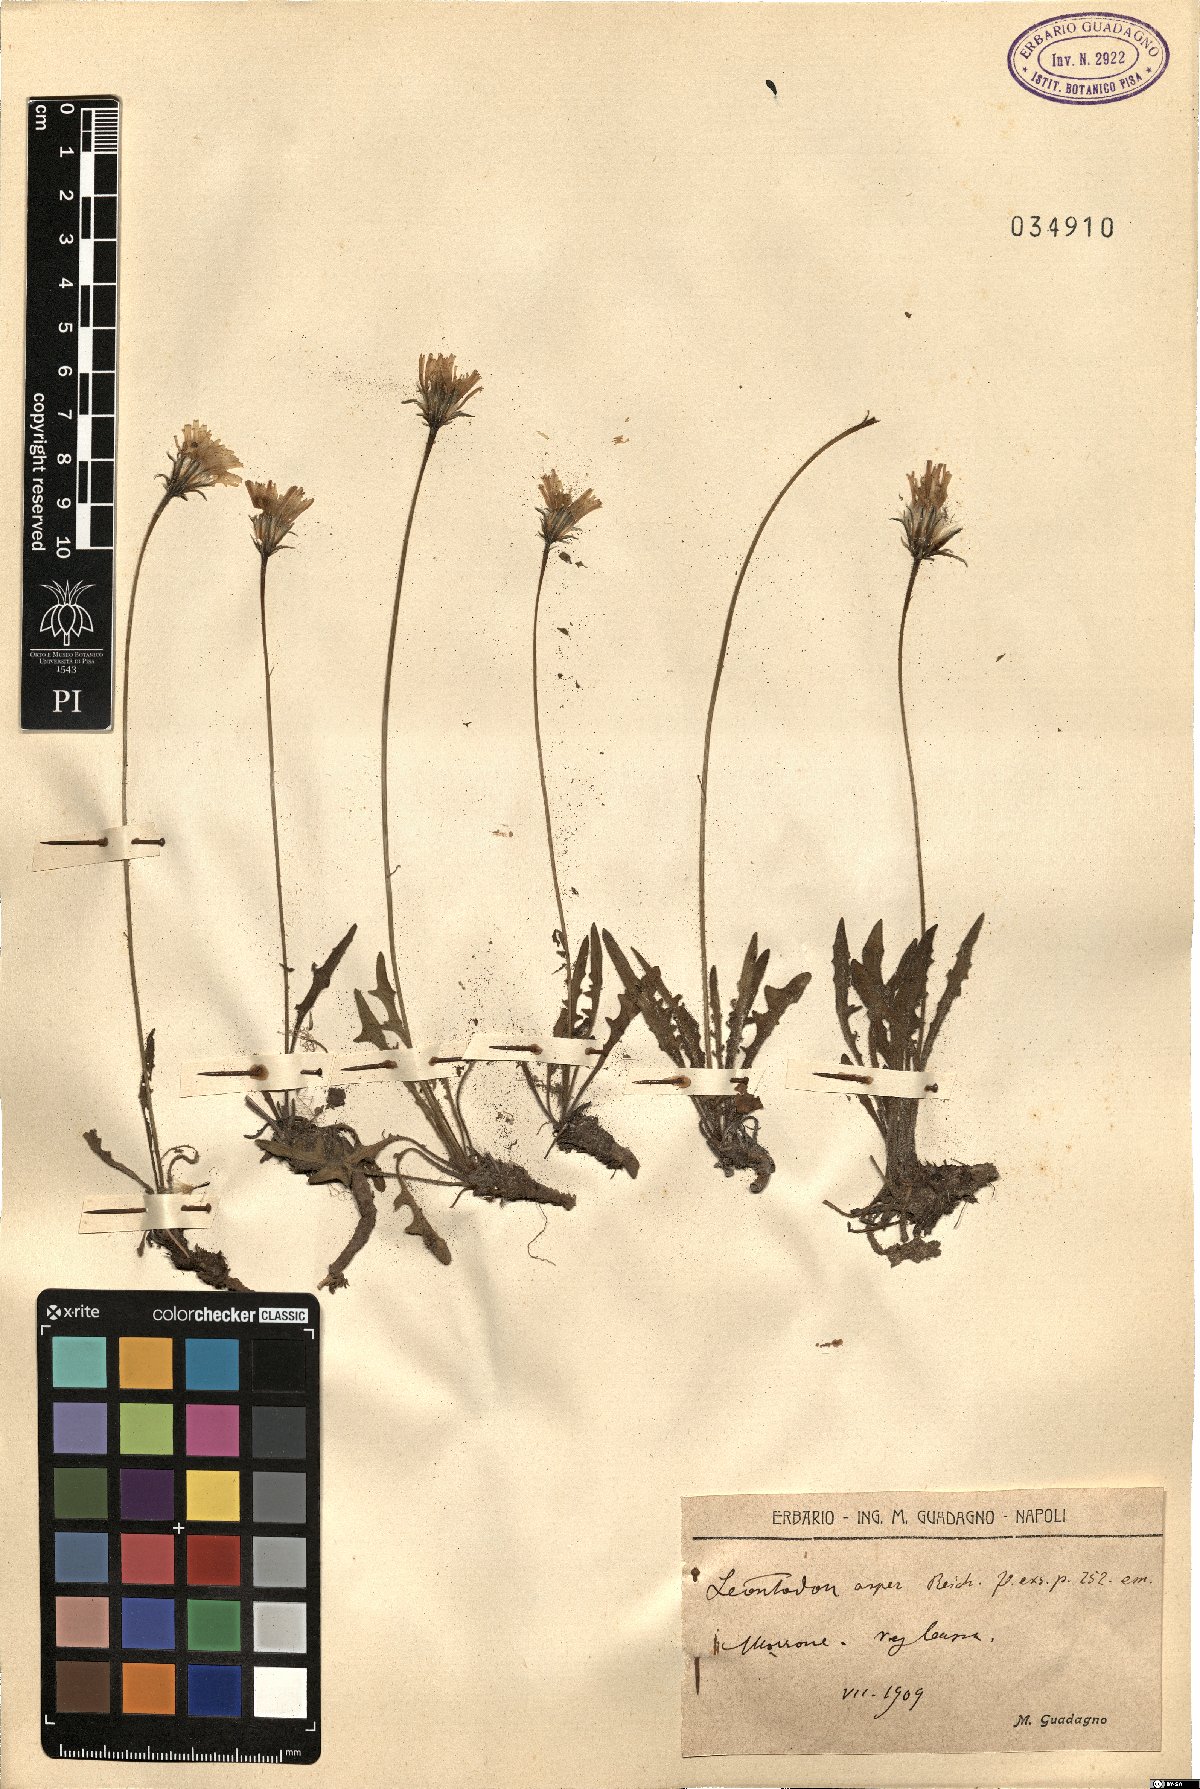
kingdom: Plantae
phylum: Tracheophyta
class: Magnoliopsida
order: Asterales
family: Asteraceae
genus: Leontodon
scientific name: Leontodon biscutellifolius
